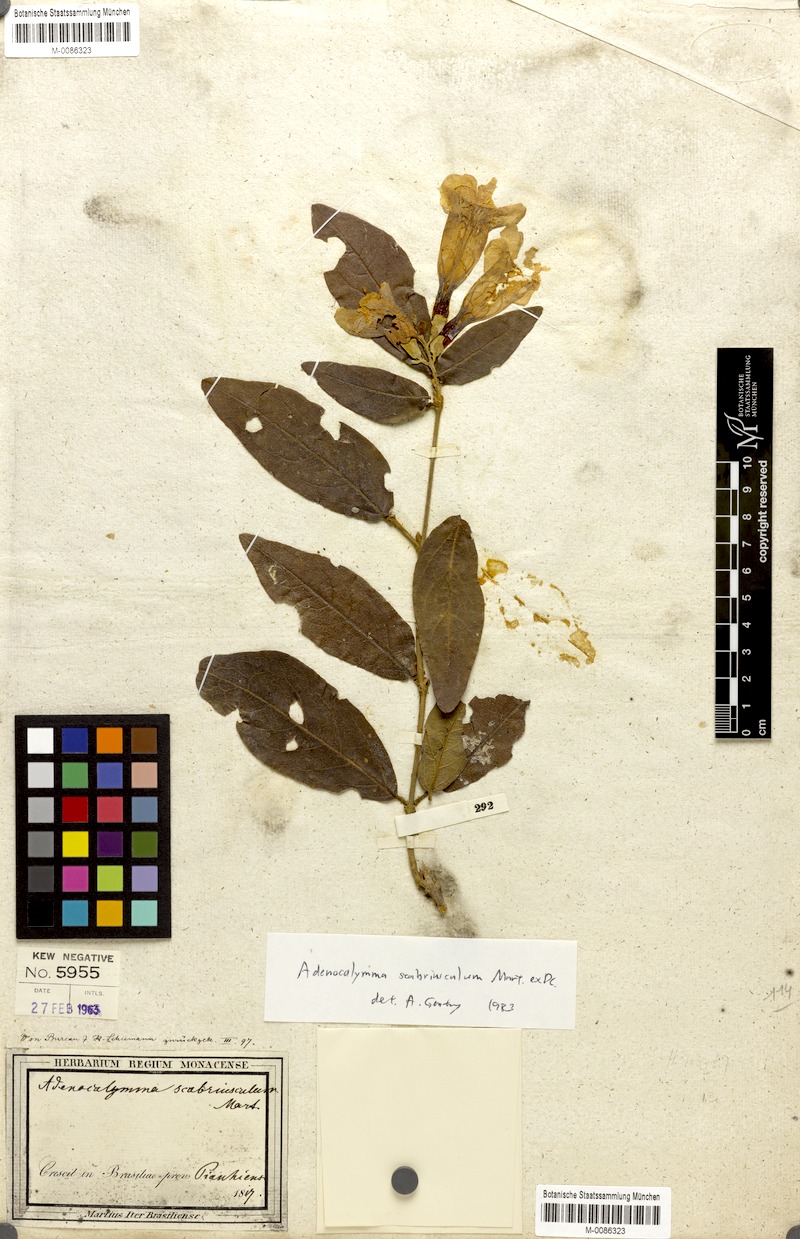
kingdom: Plantae
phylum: Tracheophyta
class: Magnoliopsida
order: Lamiales
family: Bignoniaceae
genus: Adenocalymma
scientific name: Adenocalymma scabriusculum
